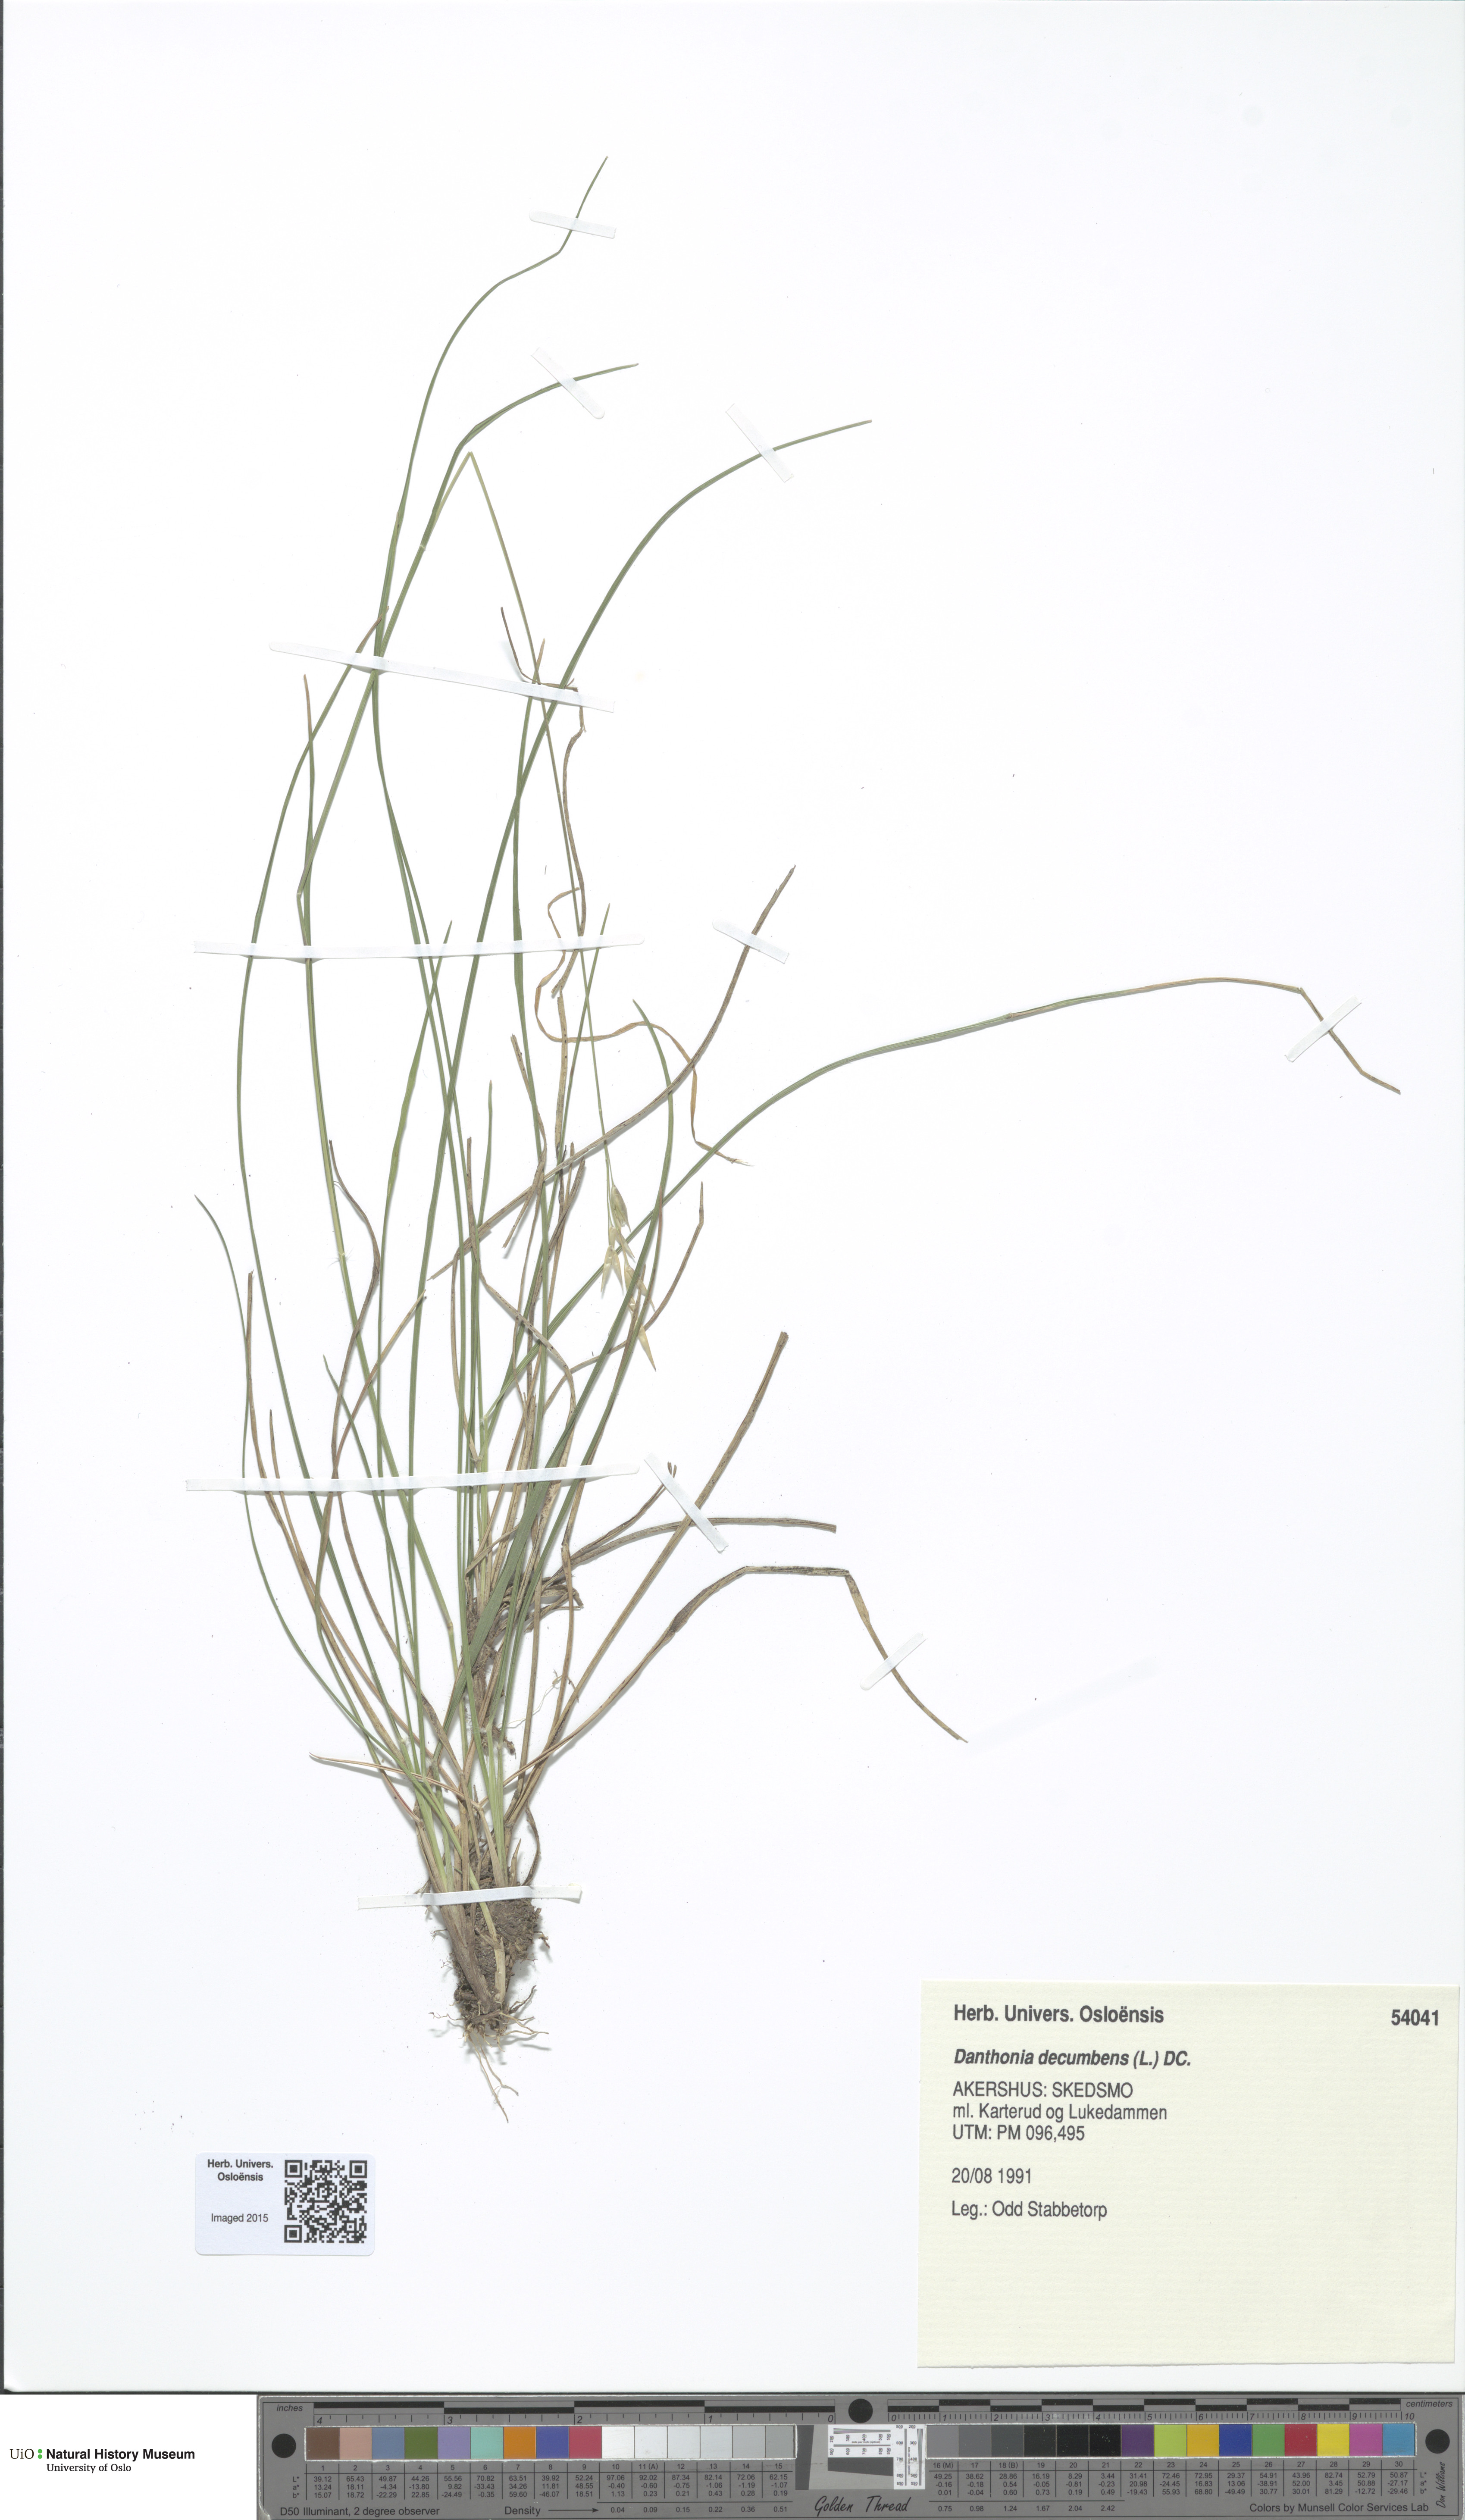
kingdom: Plantae
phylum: Tracheophyta
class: Liliopsida
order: Poales
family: Poaceae
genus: Danthonia
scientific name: Danthonia decumbens
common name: Common heathgrass
